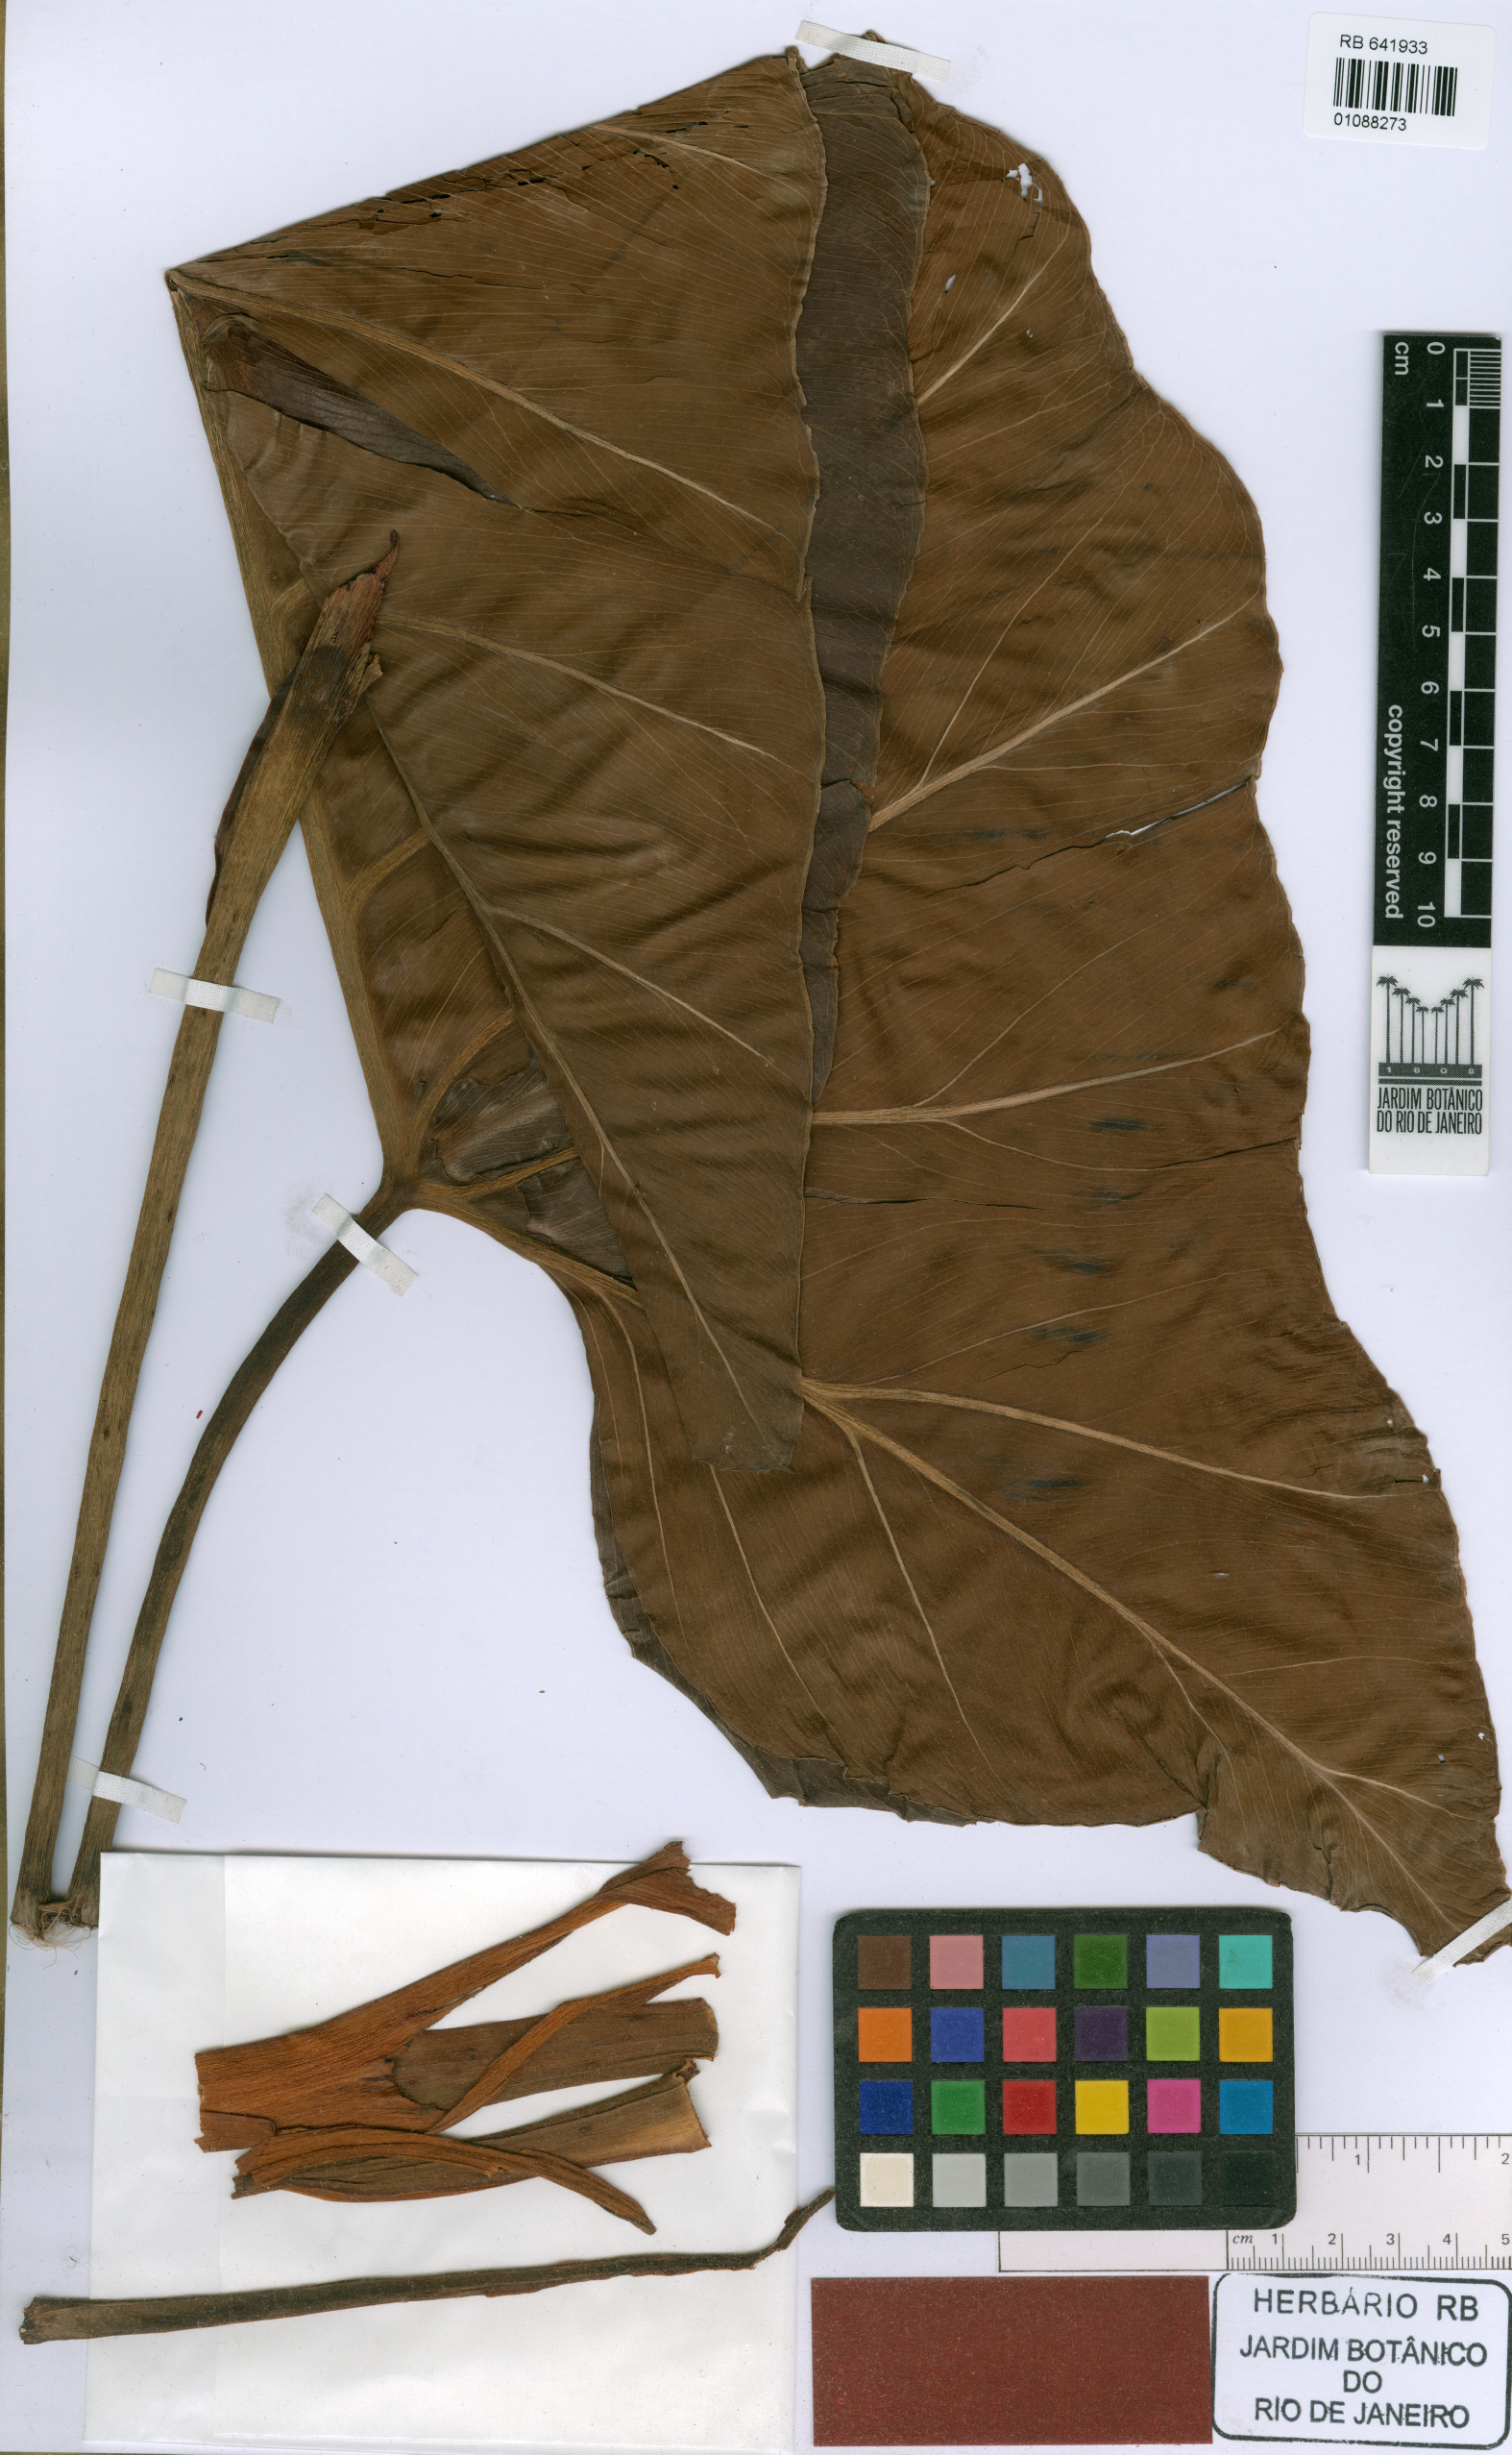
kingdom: Plantae
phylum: Tracheophyta
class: Liliopsida
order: Alismatales
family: Araceae
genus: Thaumatophyllum
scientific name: Thaumatophyllum uliginosum
